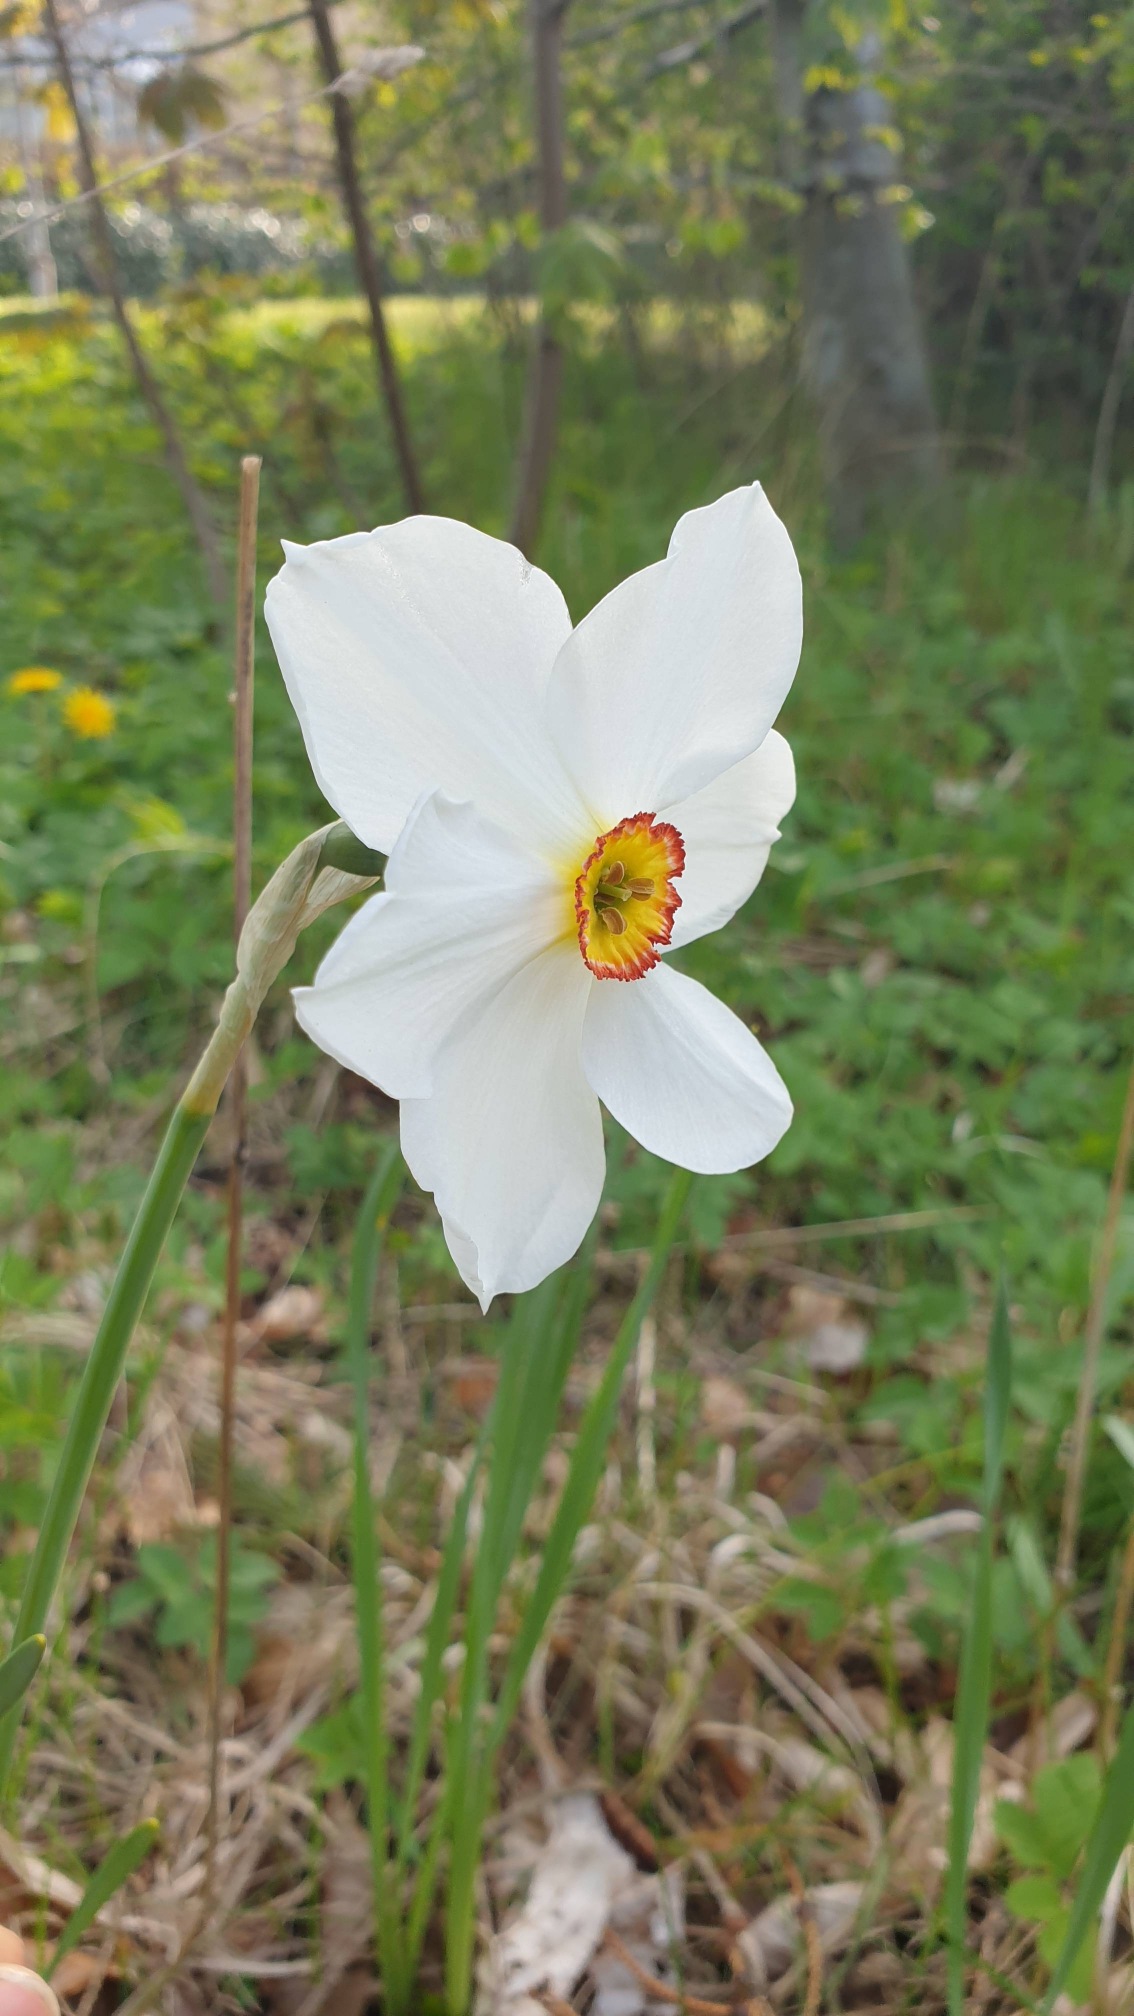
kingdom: Plantae
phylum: Tracheophyta
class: Liliopsida
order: Asparagales
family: Amaryllidaceae
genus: Narcissus
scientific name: Narcissus poeticus
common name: Pinselilje
